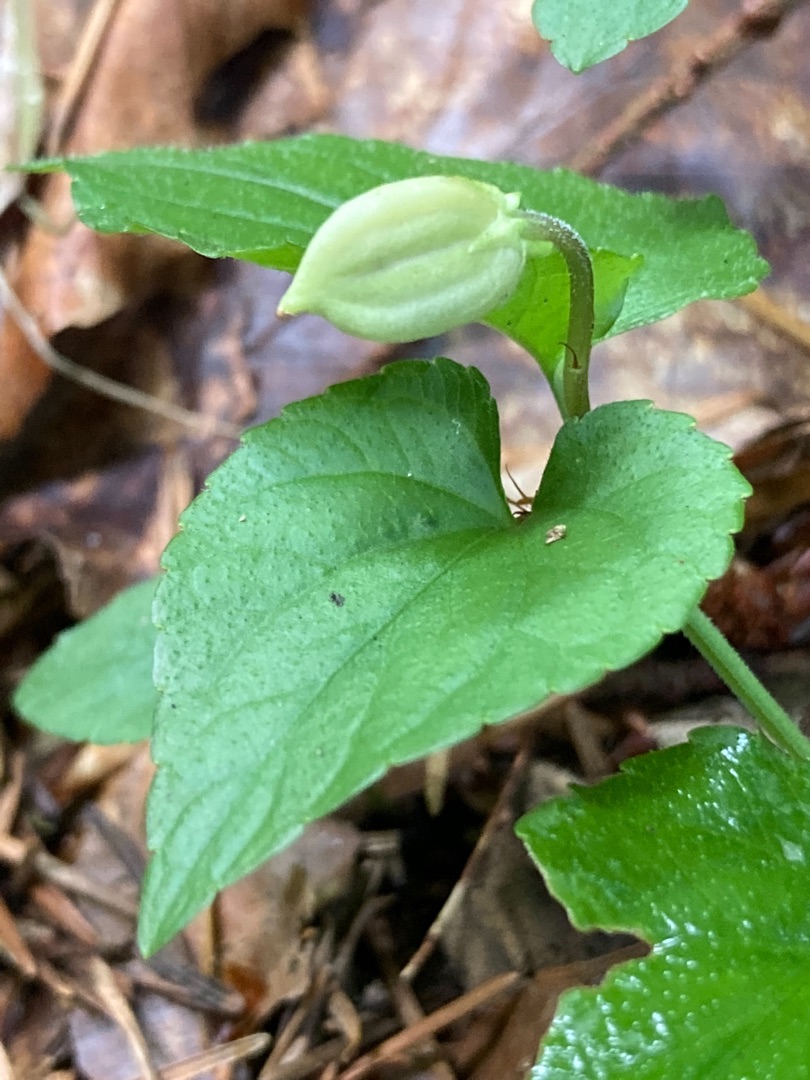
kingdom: Plantae
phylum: Tracheophyta
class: Magnoliopsida
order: Malpighiales
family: Violaceae
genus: Viola
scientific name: Viola riviniana
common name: Krat-viol
